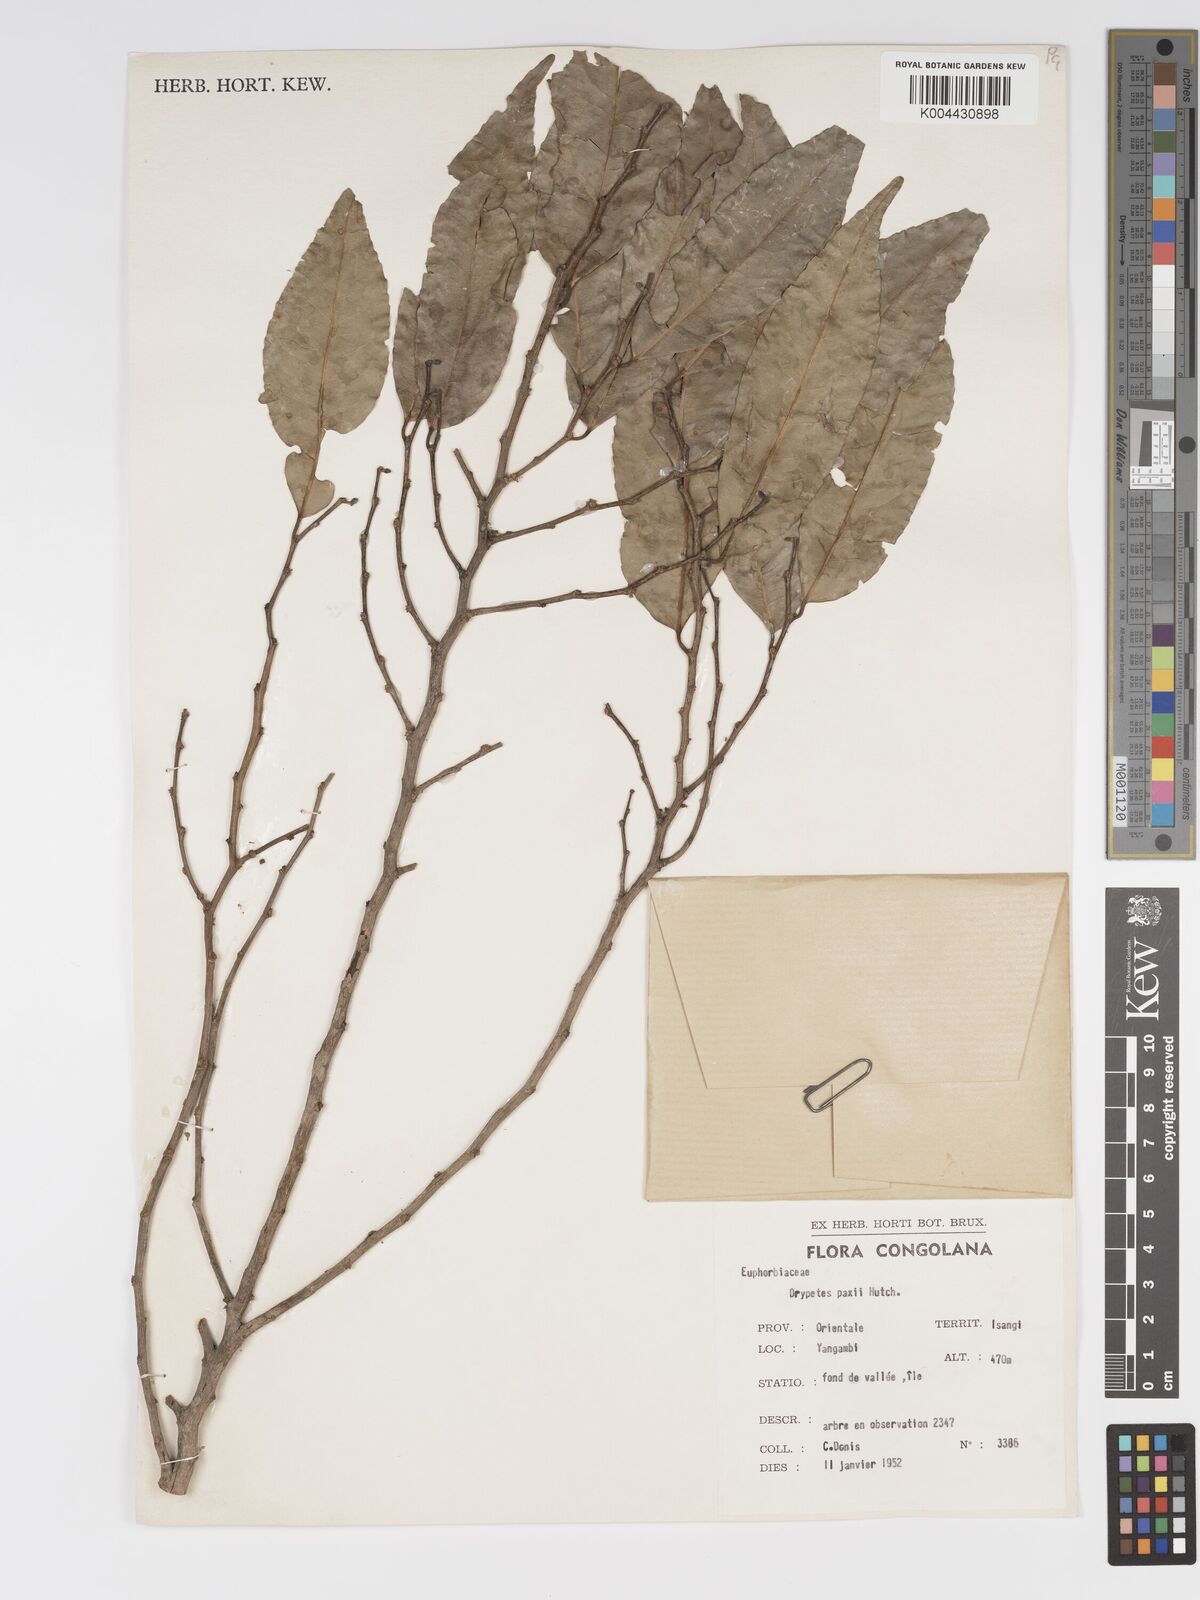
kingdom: Plantae
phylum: Tracheophyta
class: Magnoliopsida
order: Malpighiales
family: Putranjivaceae
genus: Drypetes
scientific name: Drypetes paxii
